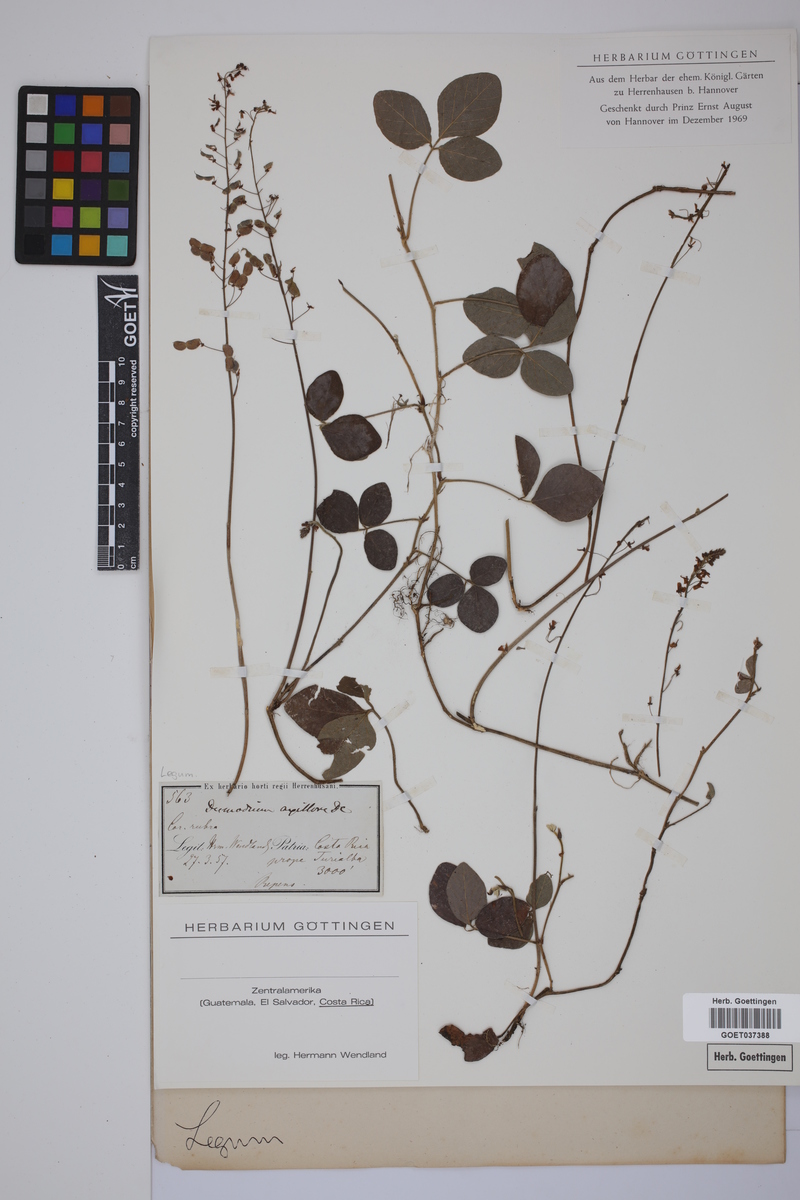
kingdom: Plantae
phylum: Tracheophyta
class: Magnoliopsida
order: Fabales
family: Fabaceae
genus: Desmodium
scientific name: Desmodium axillare
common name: Wire with
